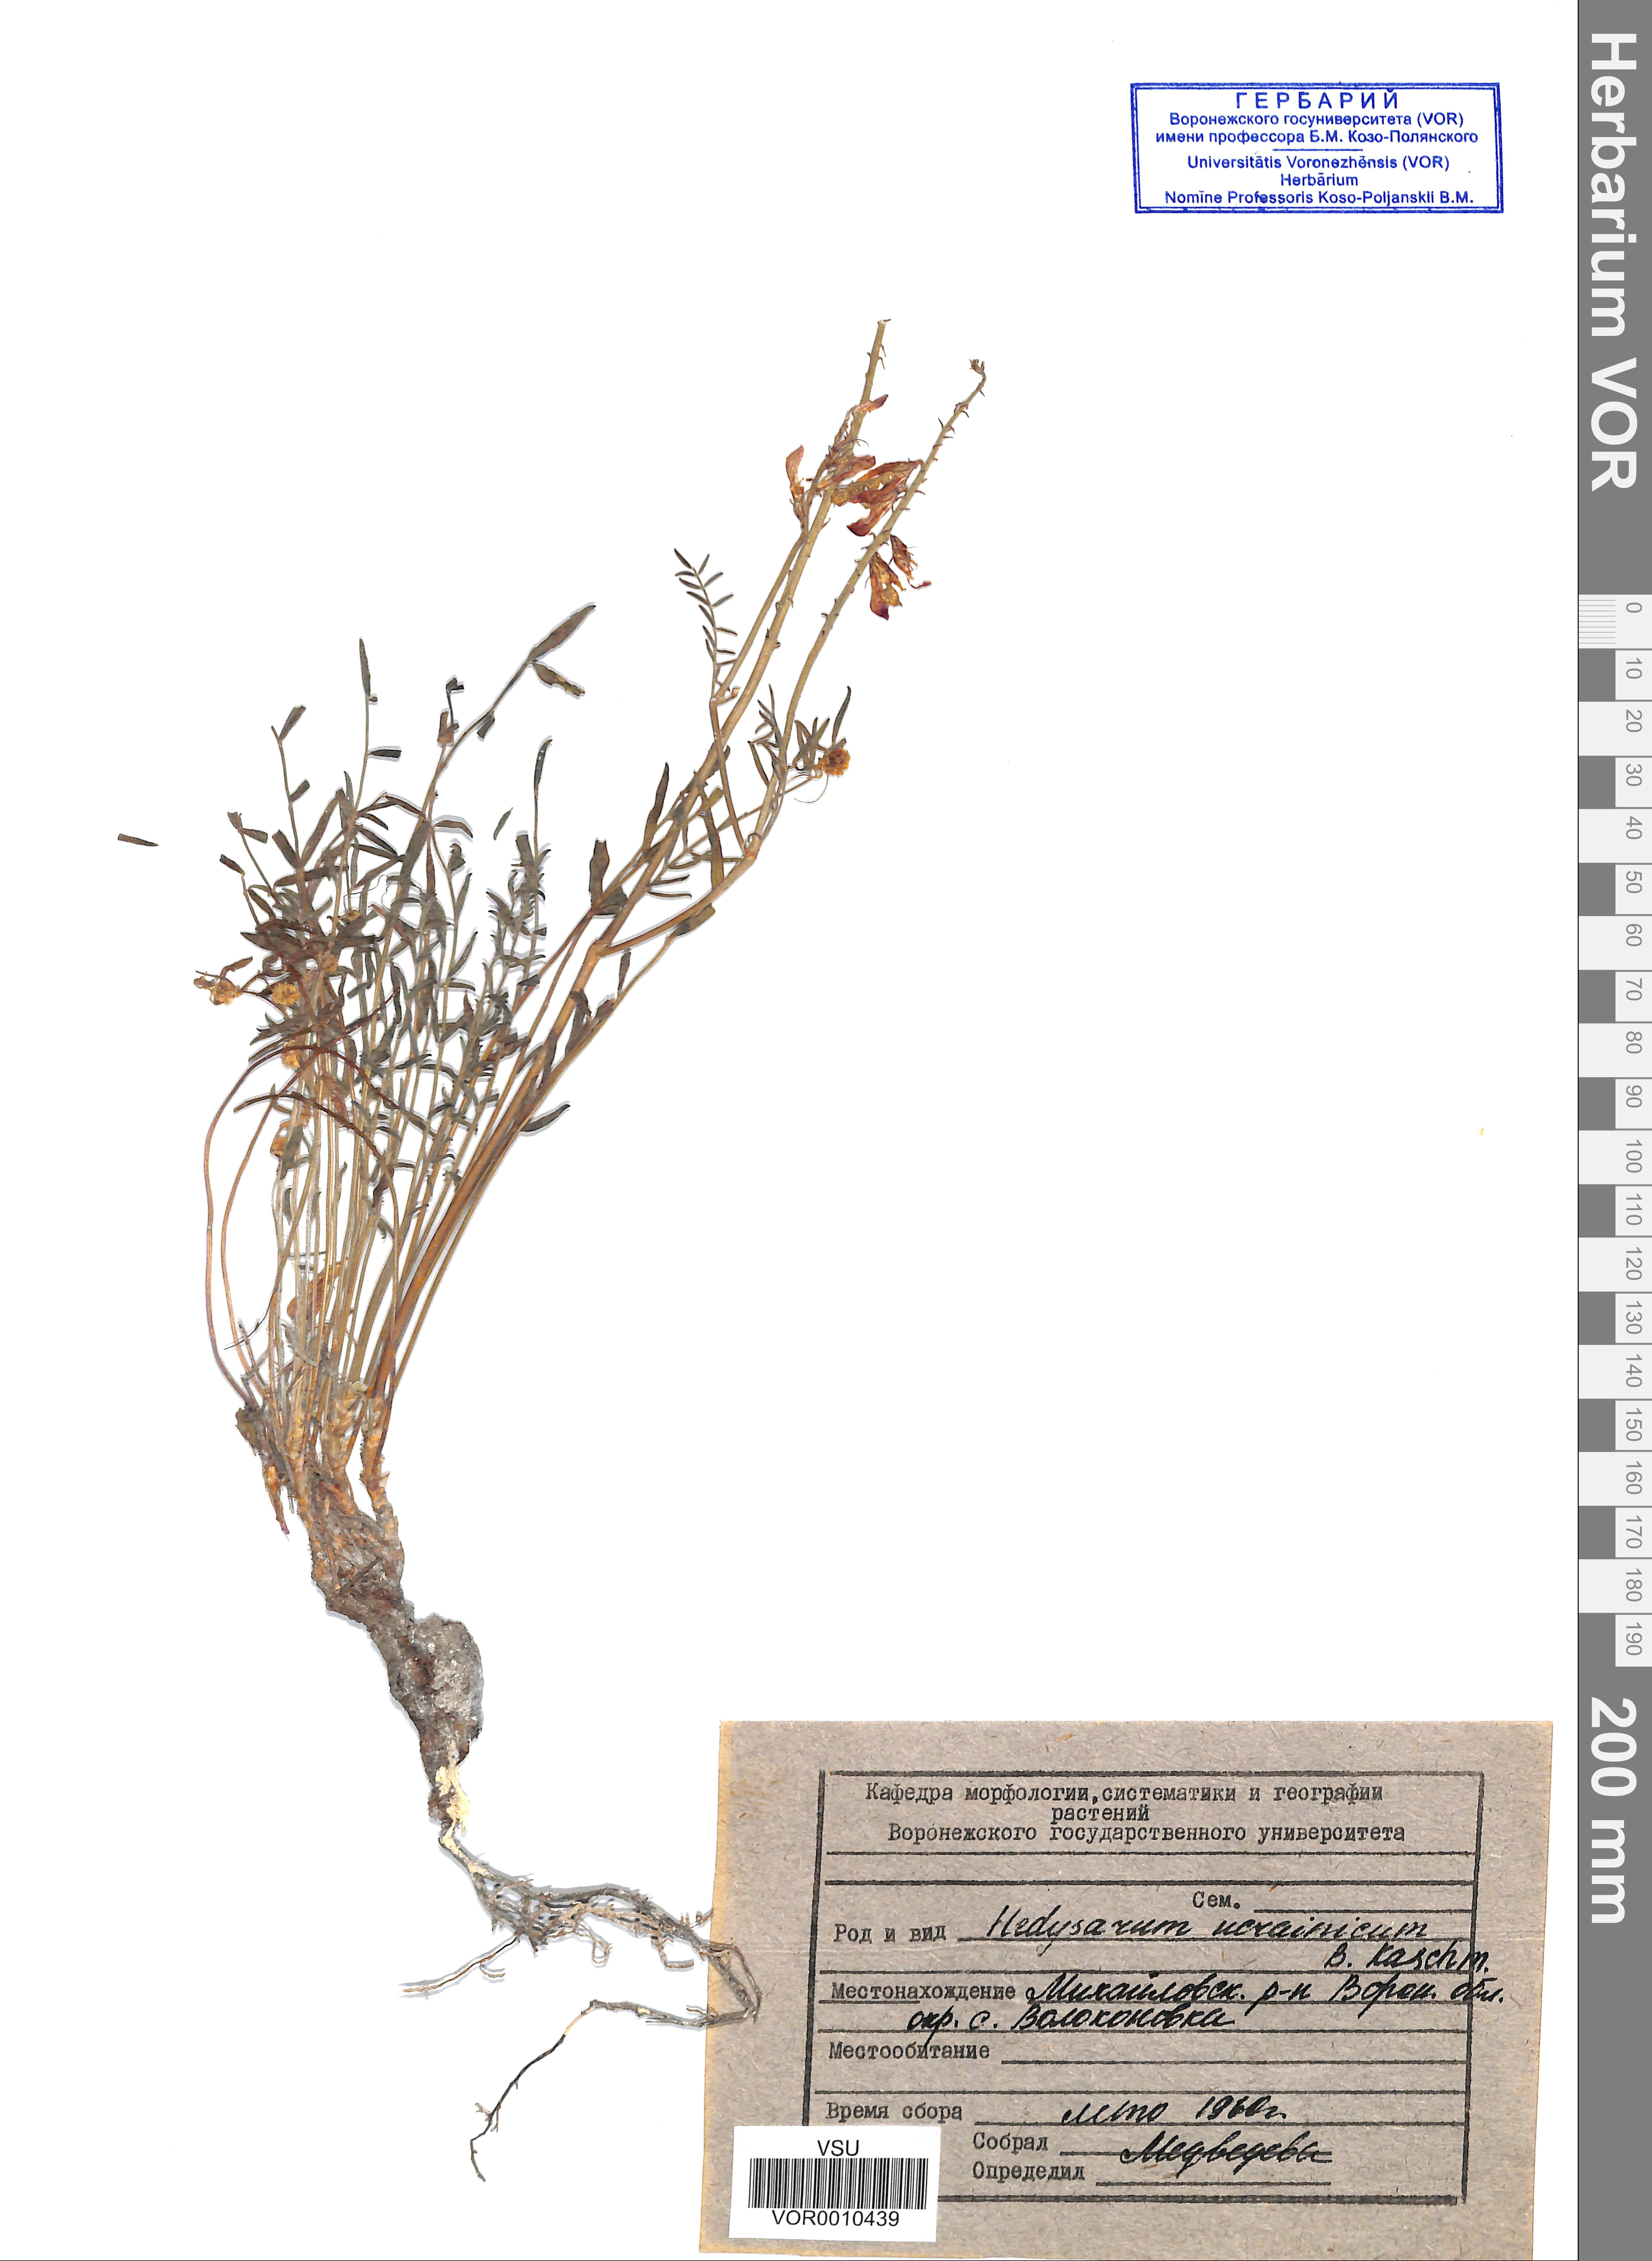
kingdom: Plantae
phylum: Tracheophyta
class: Magnoliopsida
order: Fabales
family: Fabaceae
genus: Hedysarum
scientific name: Hedysarum ucrainicum
